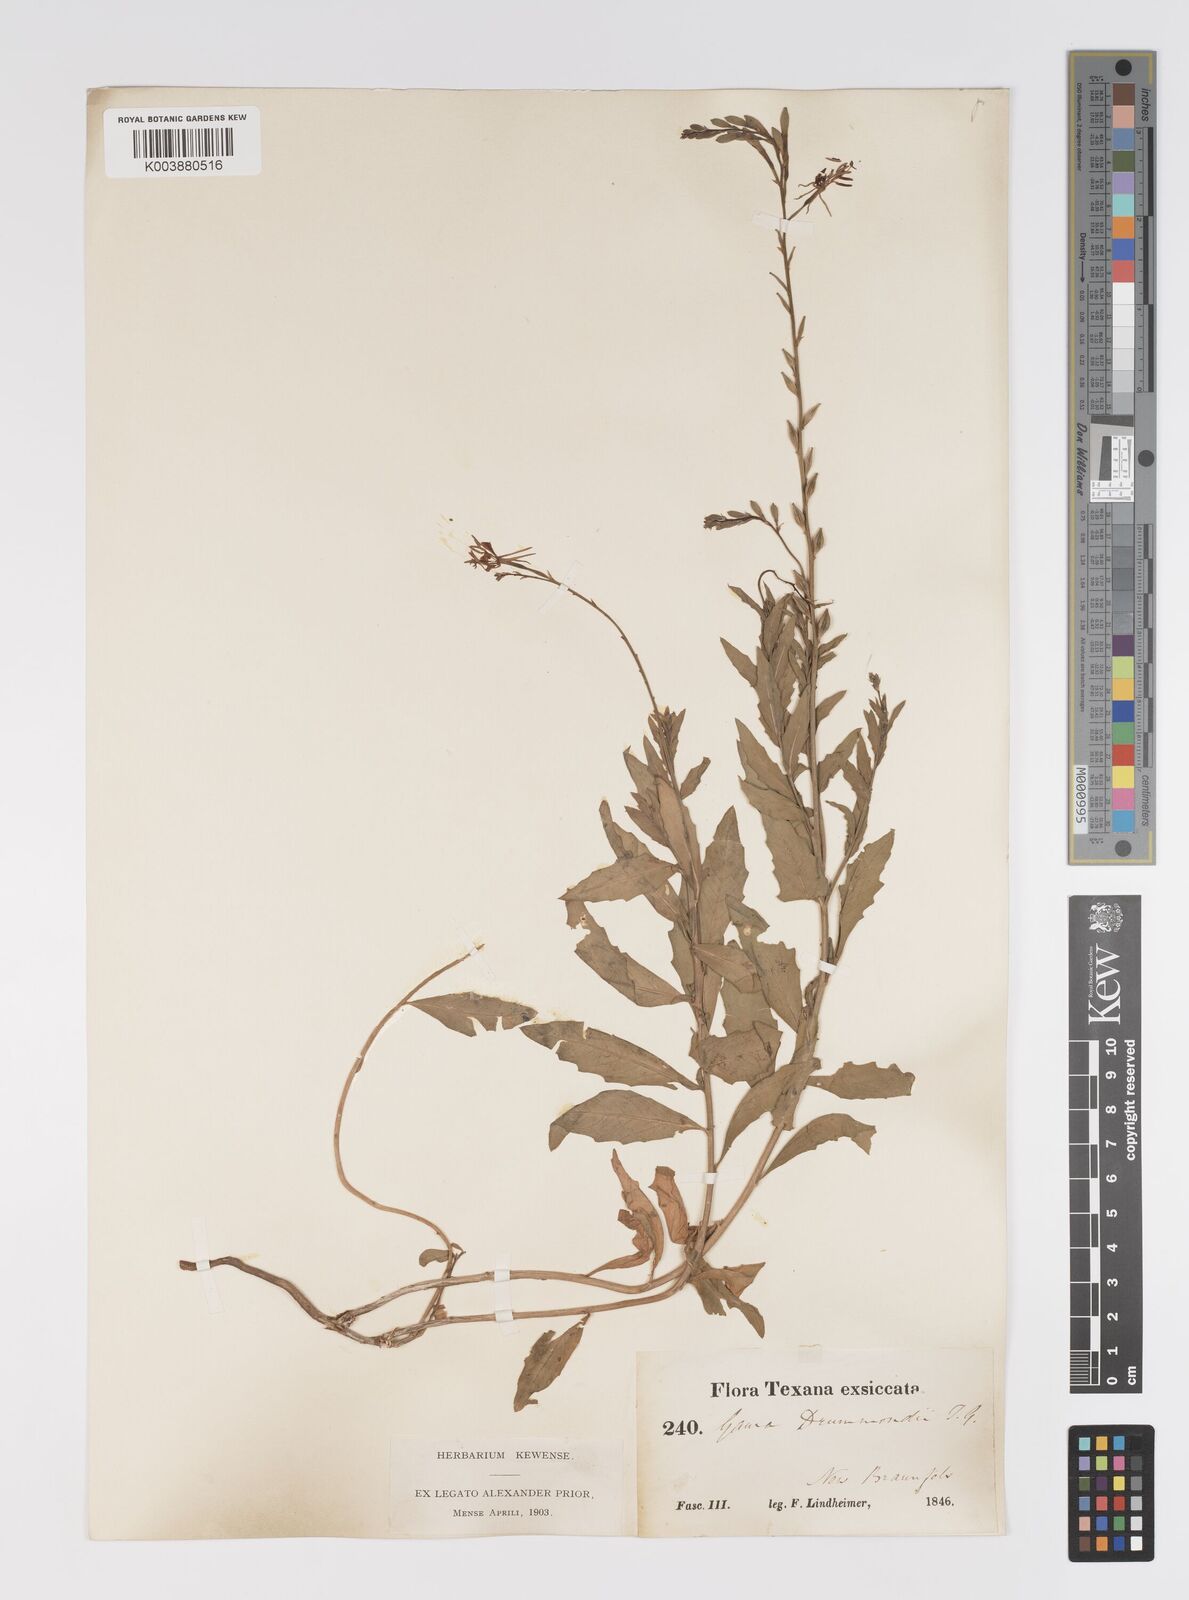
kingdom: Plantae
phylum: Tracheophyta
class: Magnoliopsida
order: Myrtales
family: Onagraceae
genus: Oenothera
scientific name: Oenothera hispida
